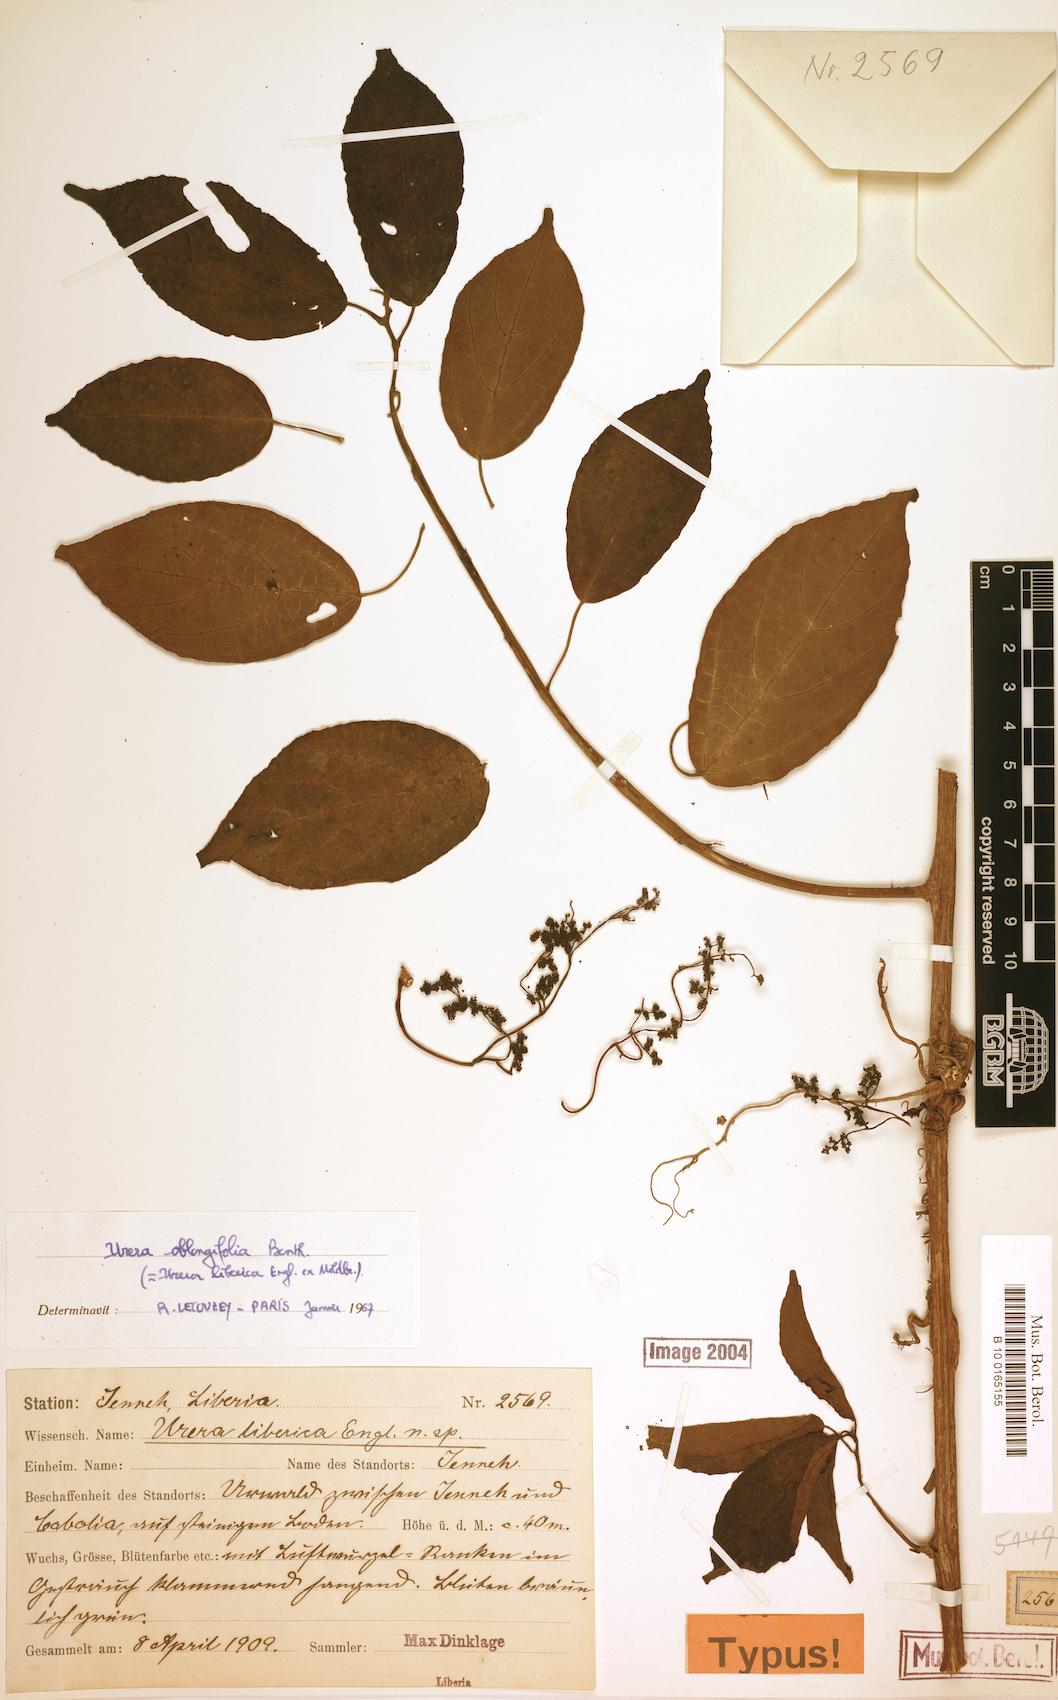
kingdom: Plantae
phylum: Tracheophyta
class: Magnoliopsida
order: Rosales
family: Urticaceae
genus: Scepocarpus
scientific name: Scepocarpus oblongifolius
